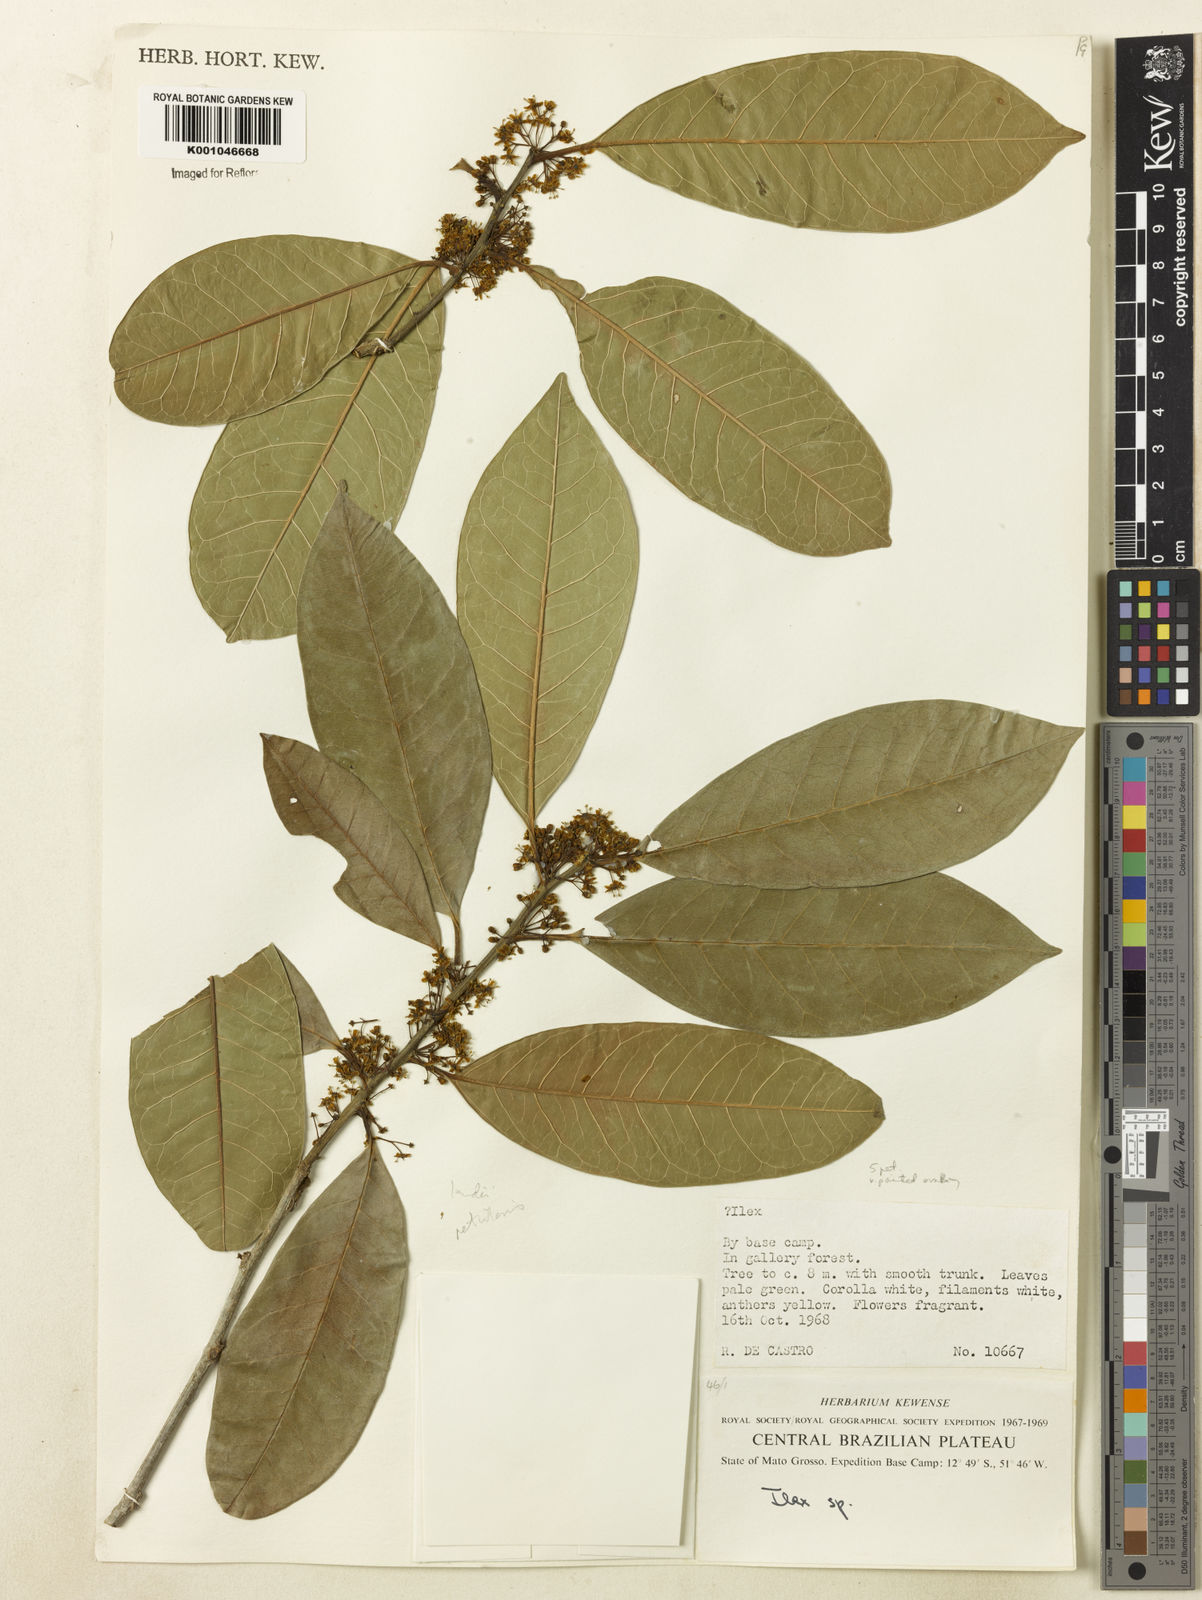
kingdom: Plantae
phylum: Tracheophyta
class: Magnoliopsida
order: Aquifoliales
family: Aquifoliaceae
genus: Ilex
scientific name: Ilex lundii
